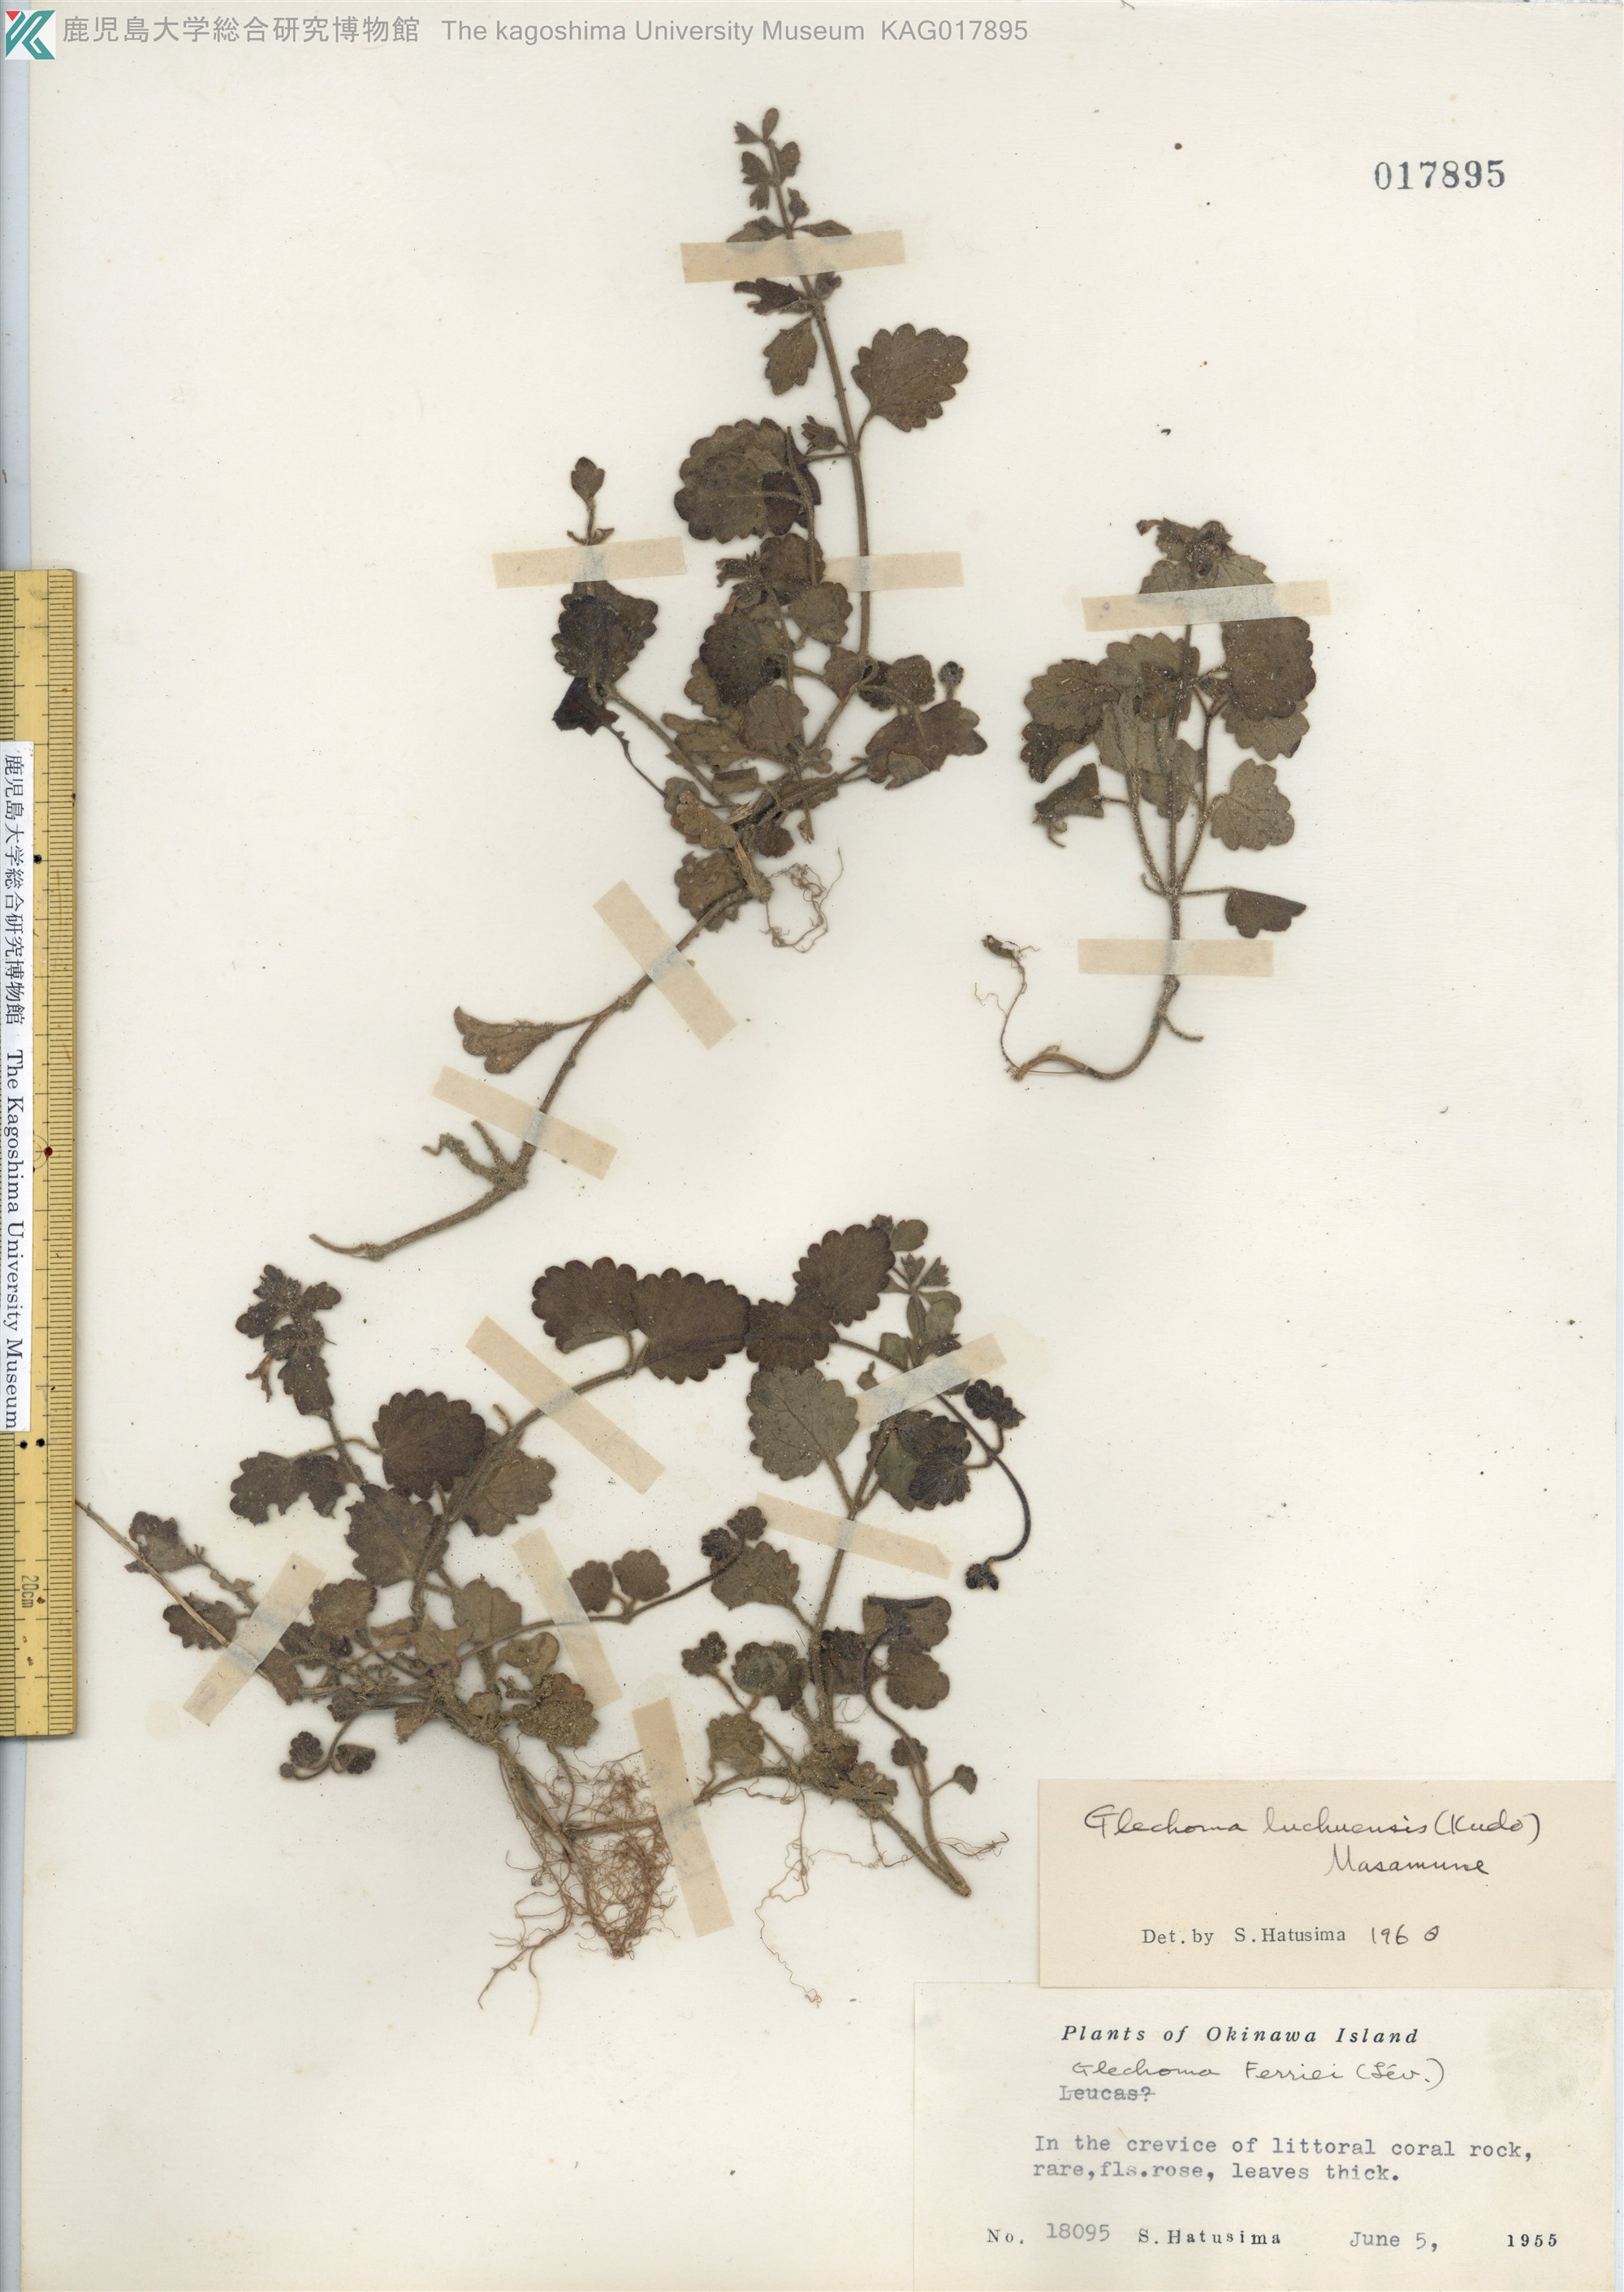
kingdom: Plantae
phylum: Tracheophyta
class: Magnoliopsida
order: Lamiales
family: Lamiaceae
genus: Suzukia
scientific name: Suzukia luchuensis
